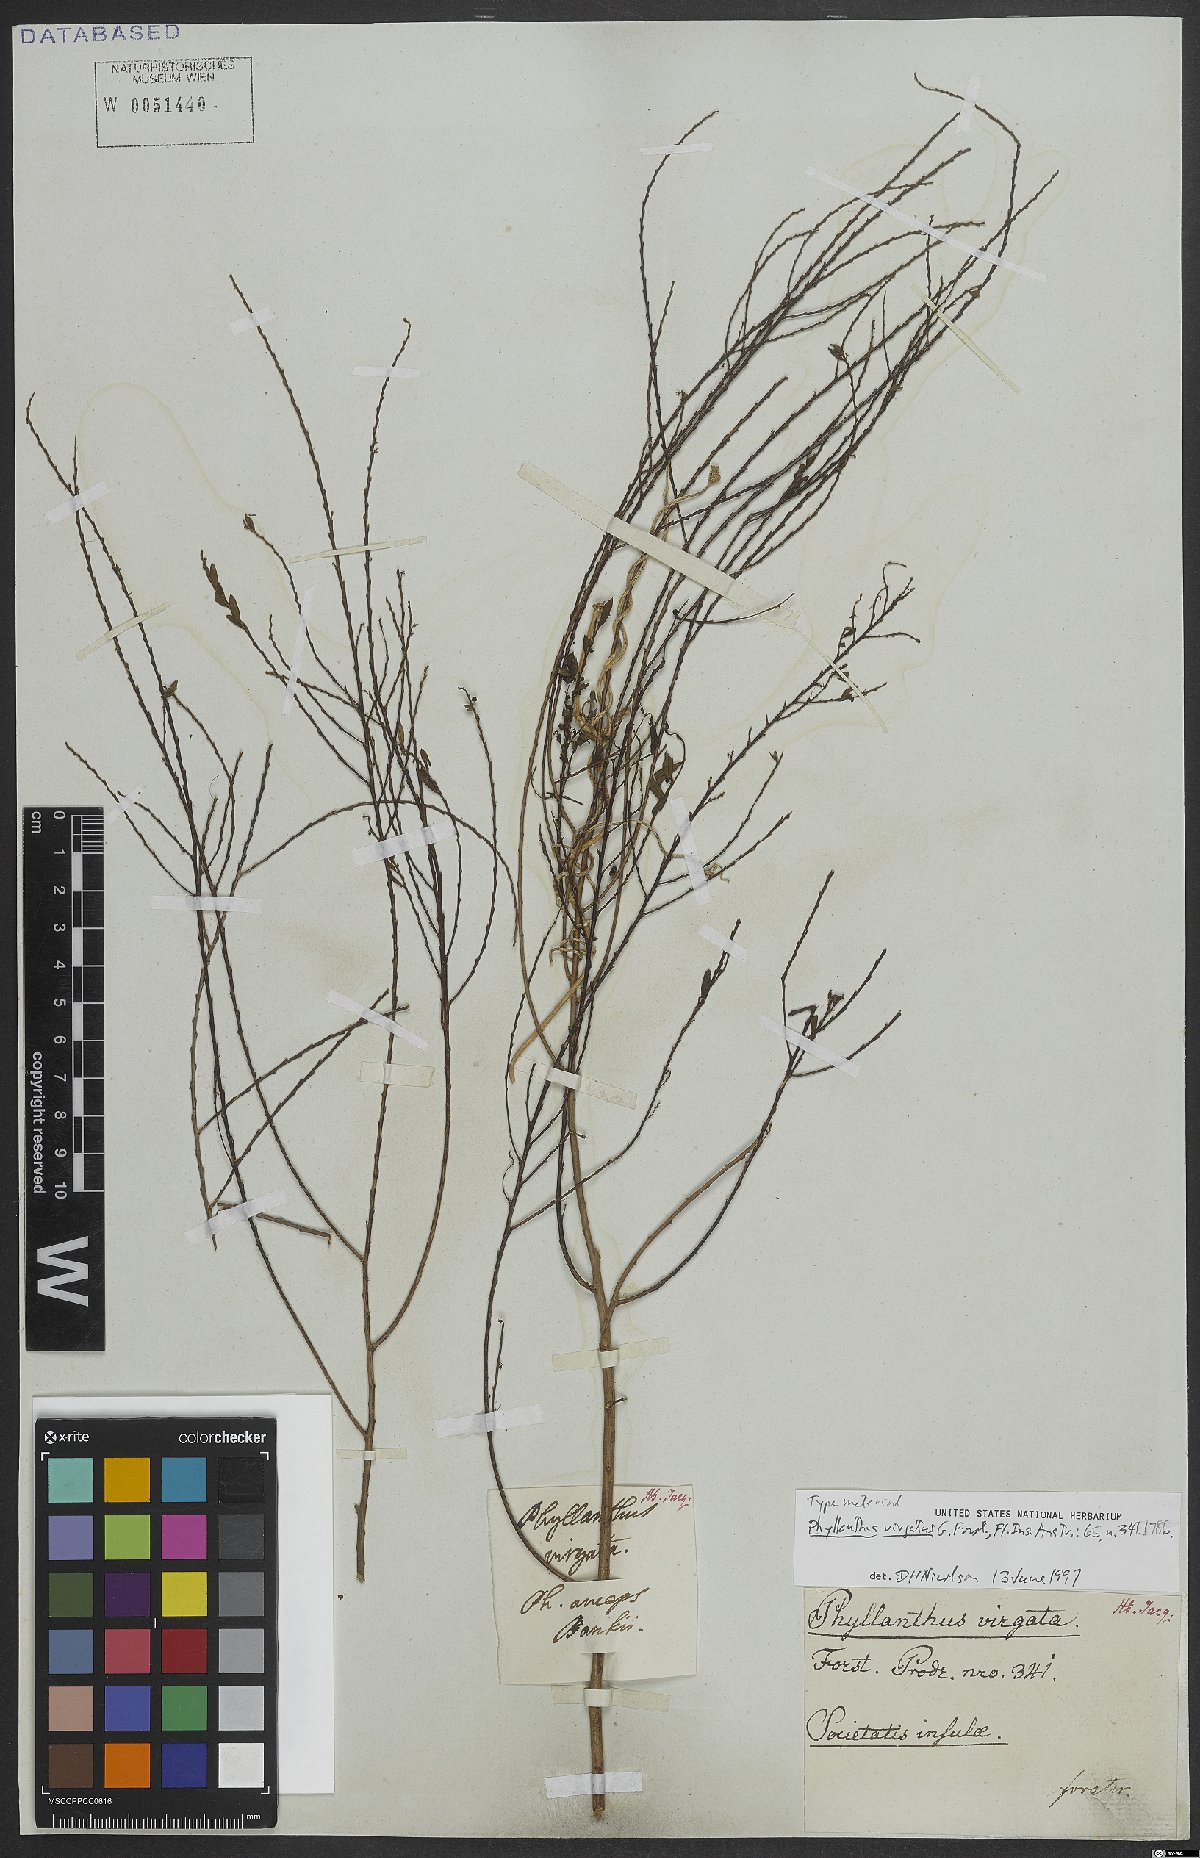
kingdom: Plantae
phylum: Tracheophyta
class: Magnoliopsida
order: Malpighiales
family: Phyllanthaceae
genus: Phyllanthus
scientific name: Phyllanthus virgatus
